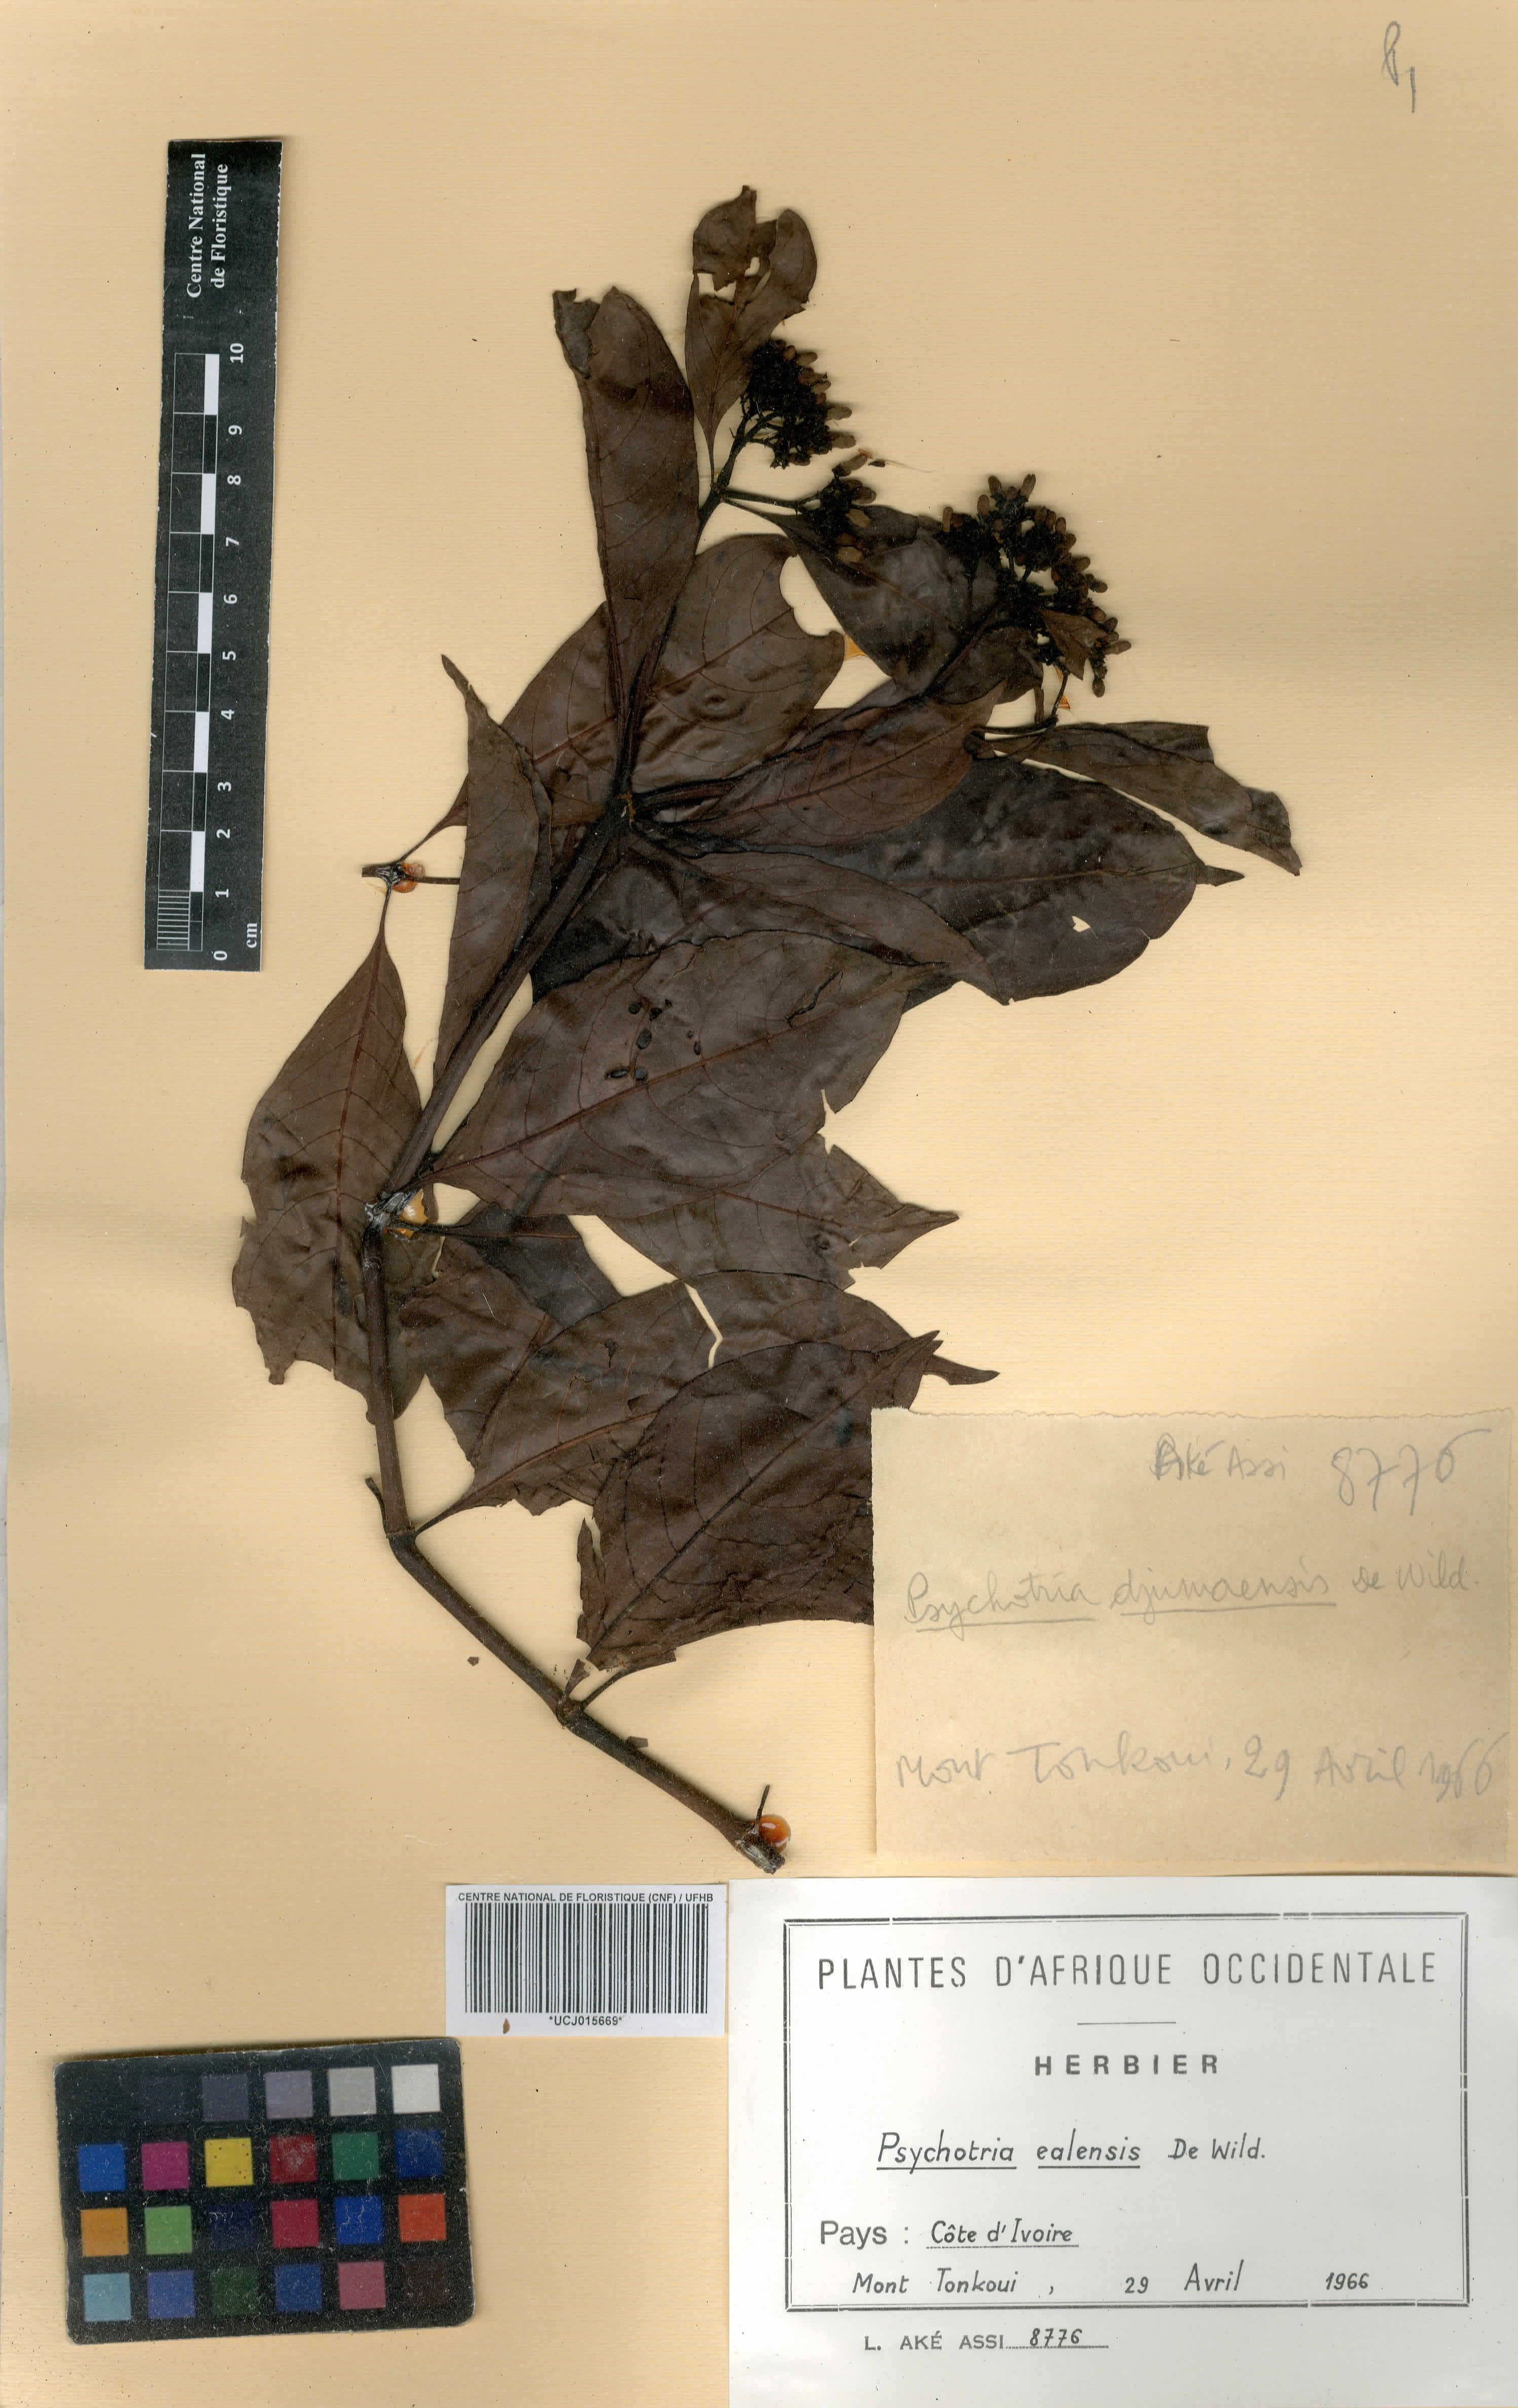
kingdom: Plantae
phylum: Tracheophyta
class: Magnoliopsida
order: Gentianales
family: Rubiaceae
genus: Psychotria
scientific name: Psychotria ealaensis
